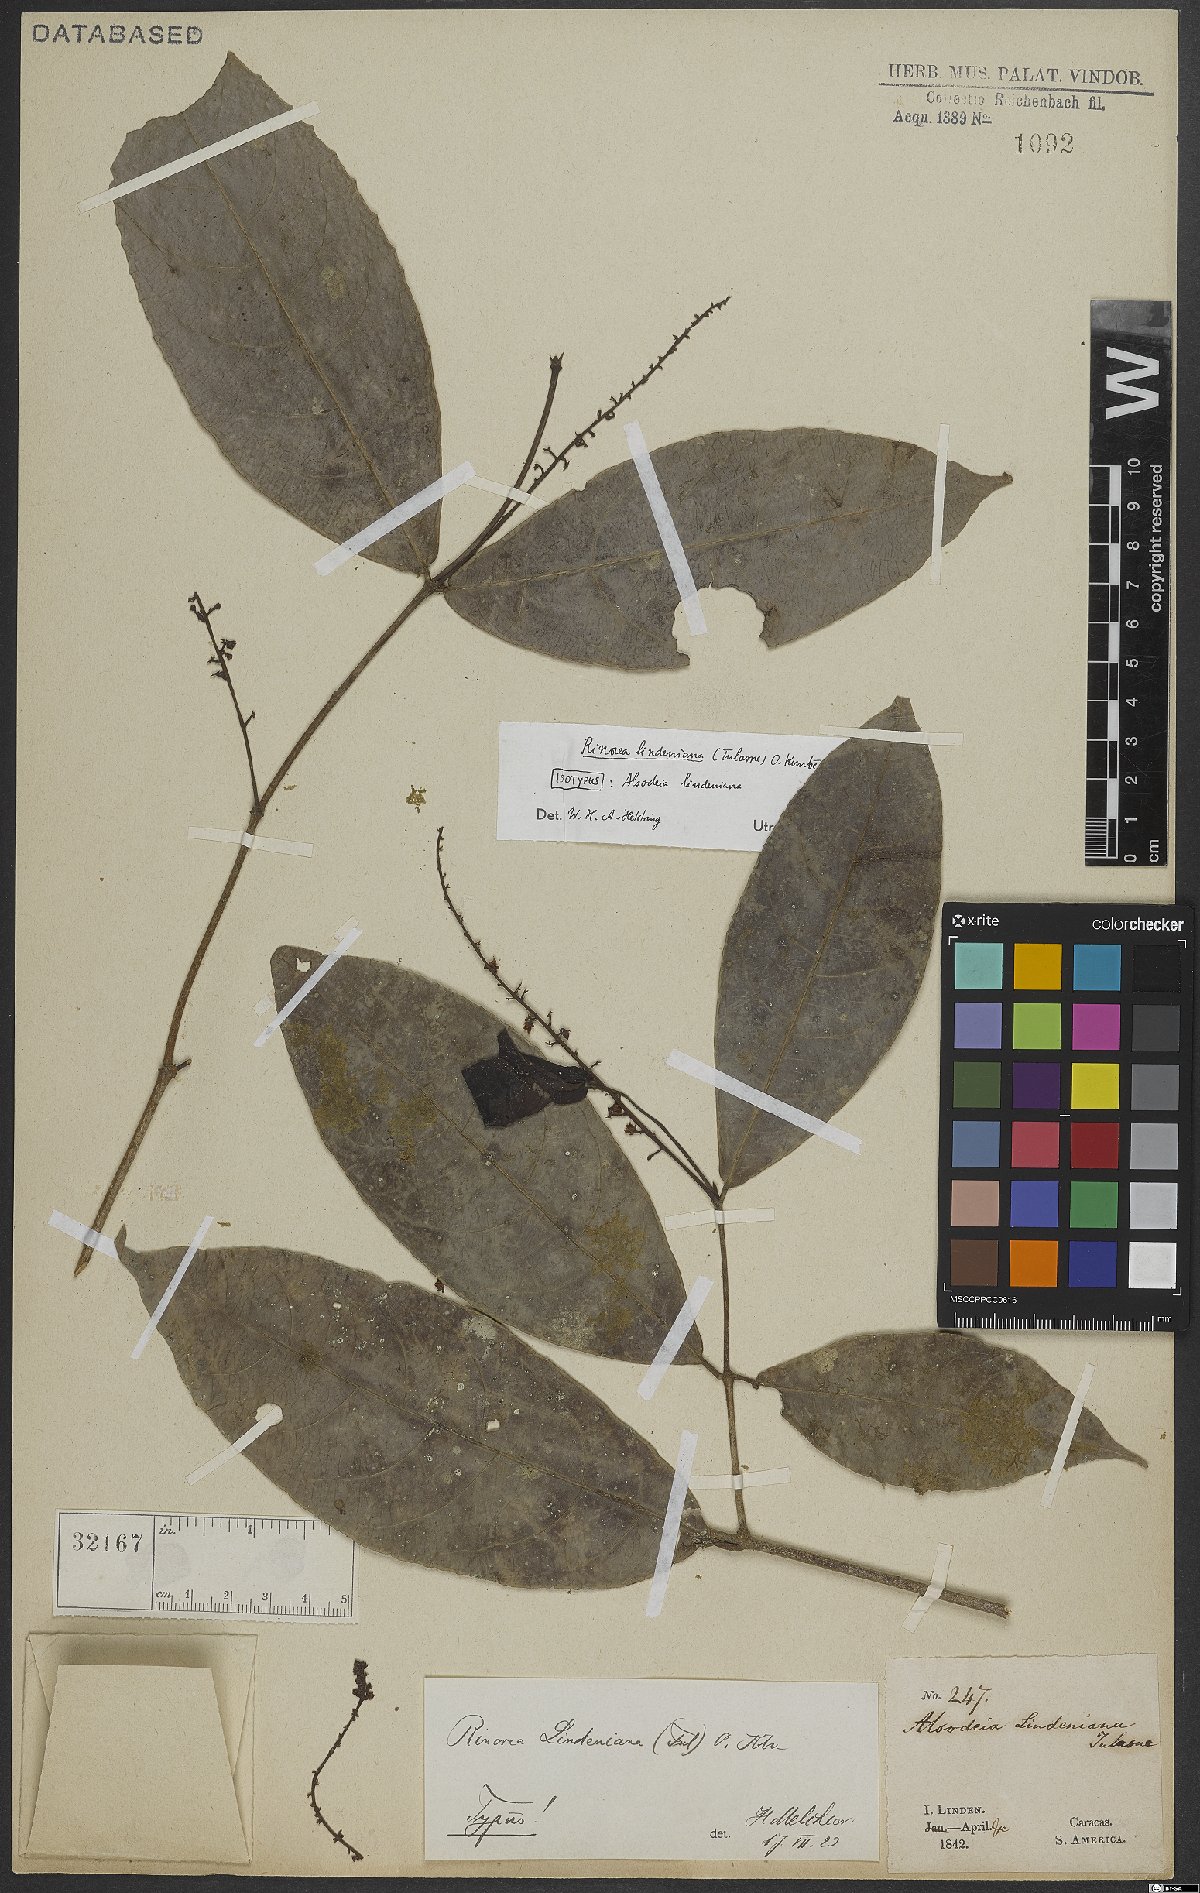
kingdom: Plantae
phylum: Tracheophyta
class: Magnoliopsida
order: Malpighiales
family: Violaceae
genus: Rinorea
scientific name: Rinorea lindeniana
